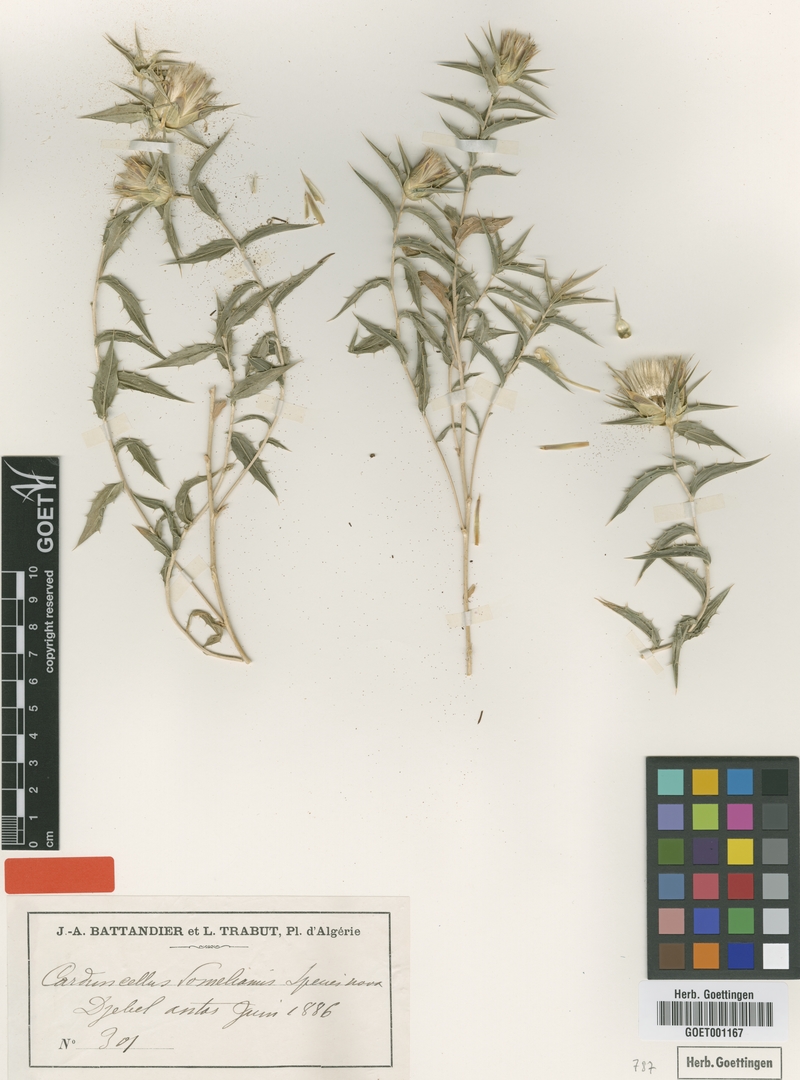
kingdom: Plantae
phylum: Tracheophyta
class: Magnoliopsida
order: Asterales
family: Asteraceae
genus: Carduncellus
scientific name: Carduncellus pomelianus
